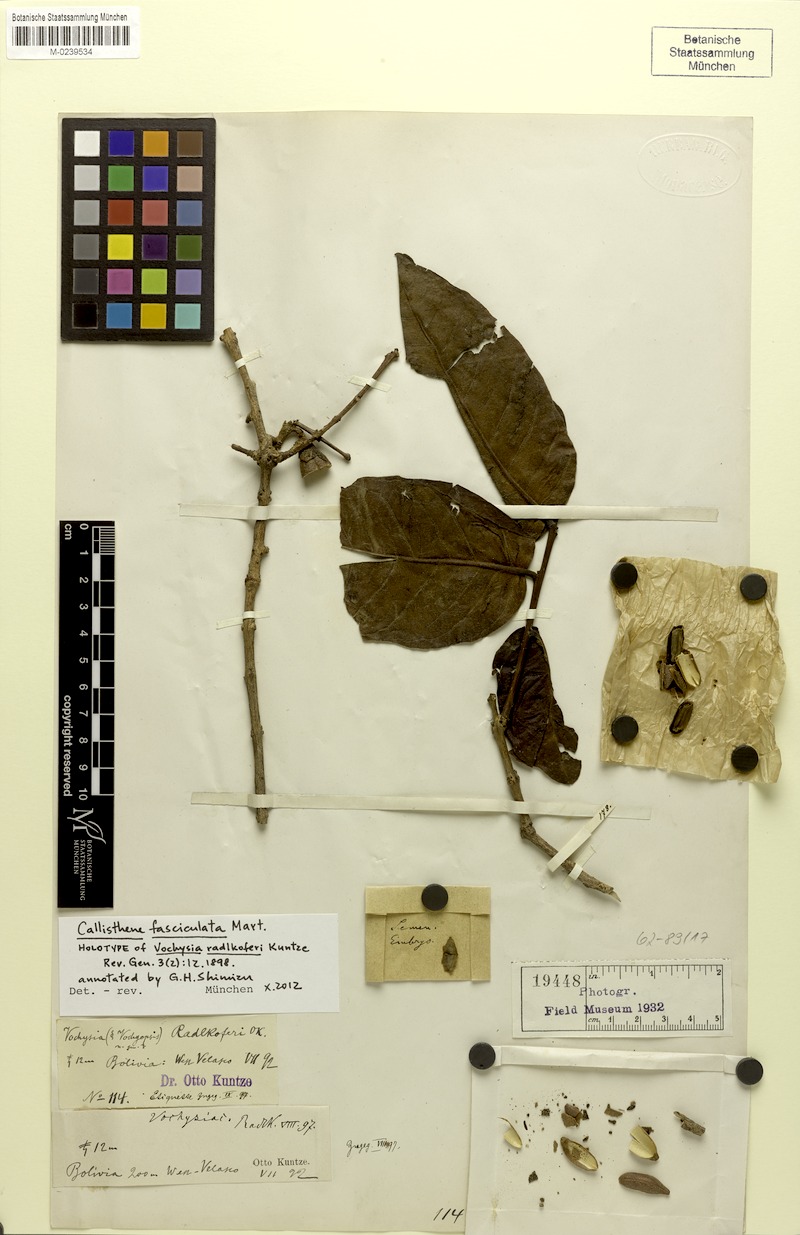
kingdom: Plantae
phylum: Tracheophyta
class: Magnoliopsida
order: Myrtales
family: Vochysiaceae
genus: Callisthene
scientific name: Callisthene fasciculata
